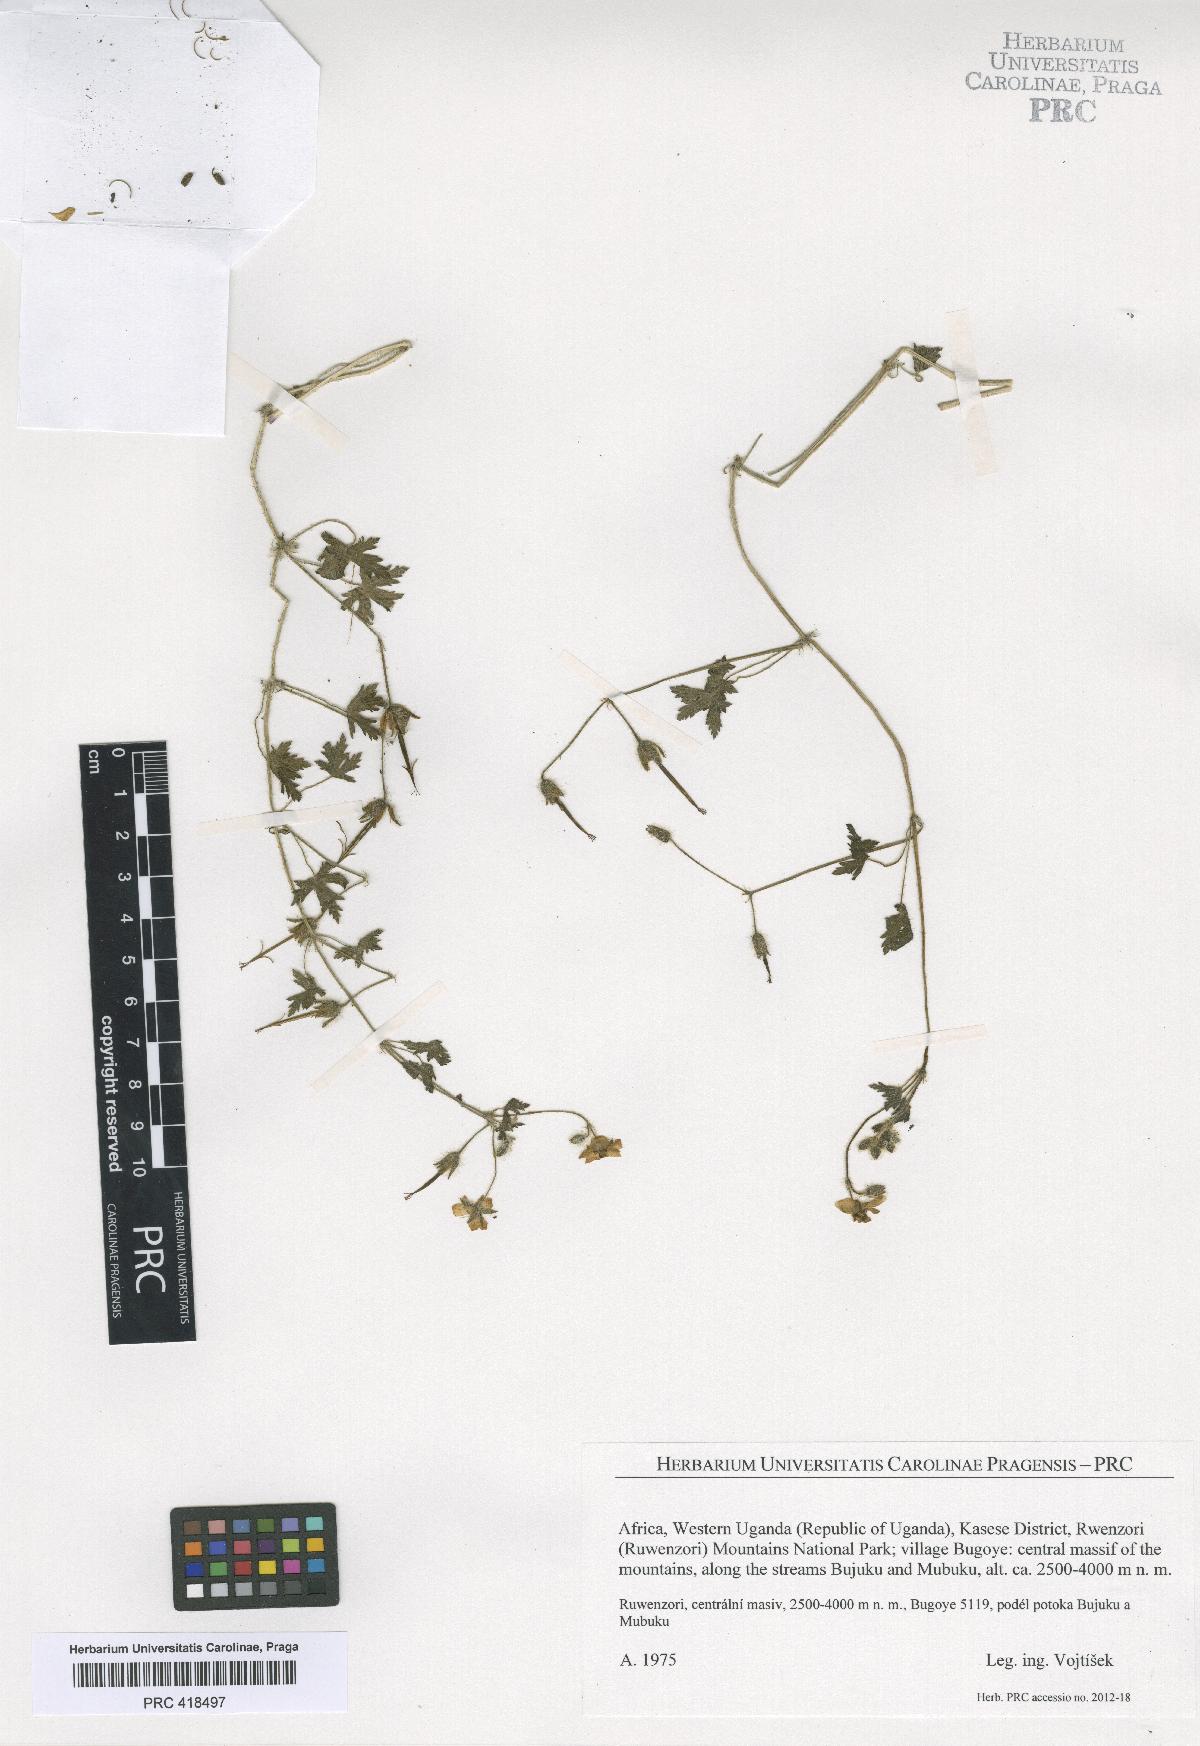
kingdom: Plantae
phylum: Tracheophyta
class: Magnoliopsida
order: Geraniales
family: Geraniaceae
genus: Geranium
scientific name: Geranium aculeolatum
